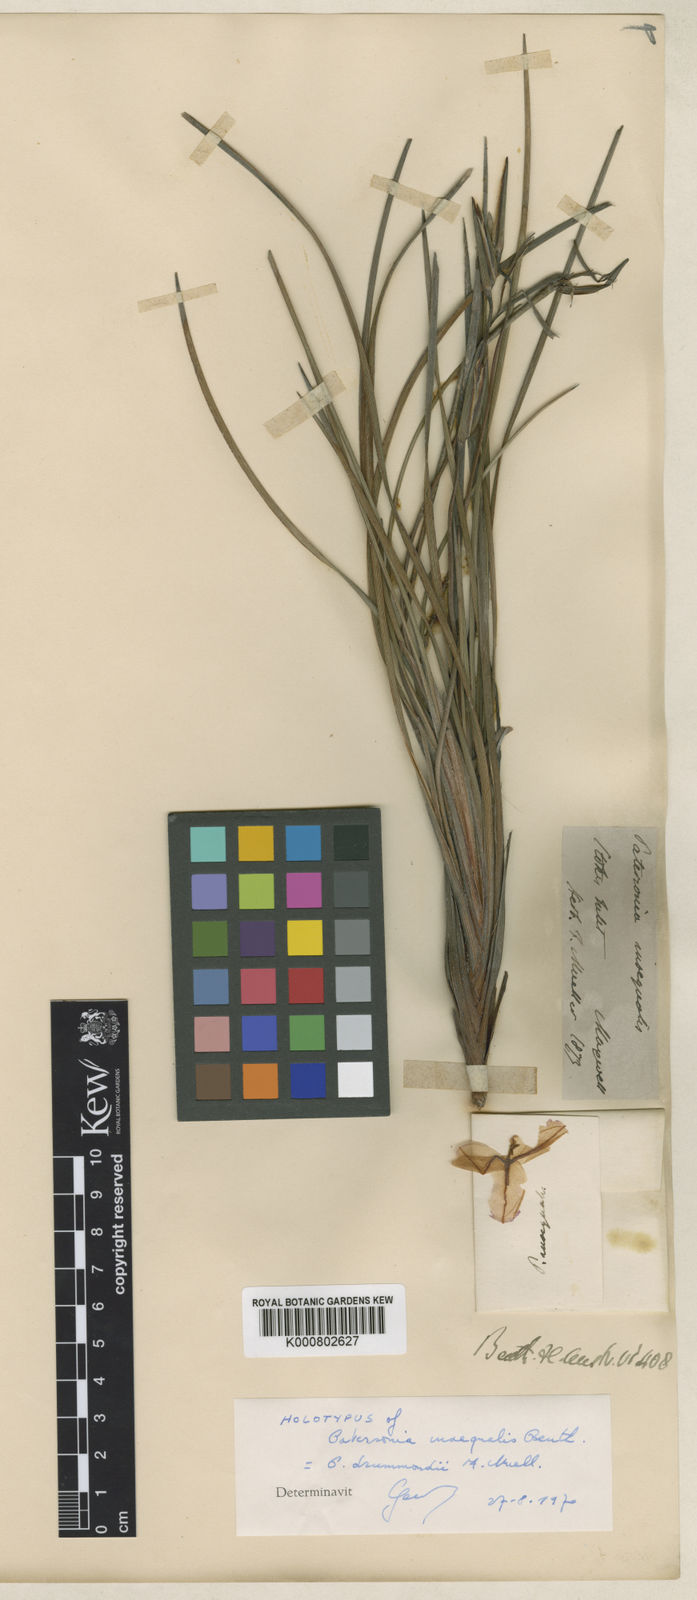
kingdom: Plantae
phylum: Tracheophyta
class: Liliopsida
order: Asparagales
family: Iridaceae
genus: Patersonia
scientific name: Patersonia drummondii
